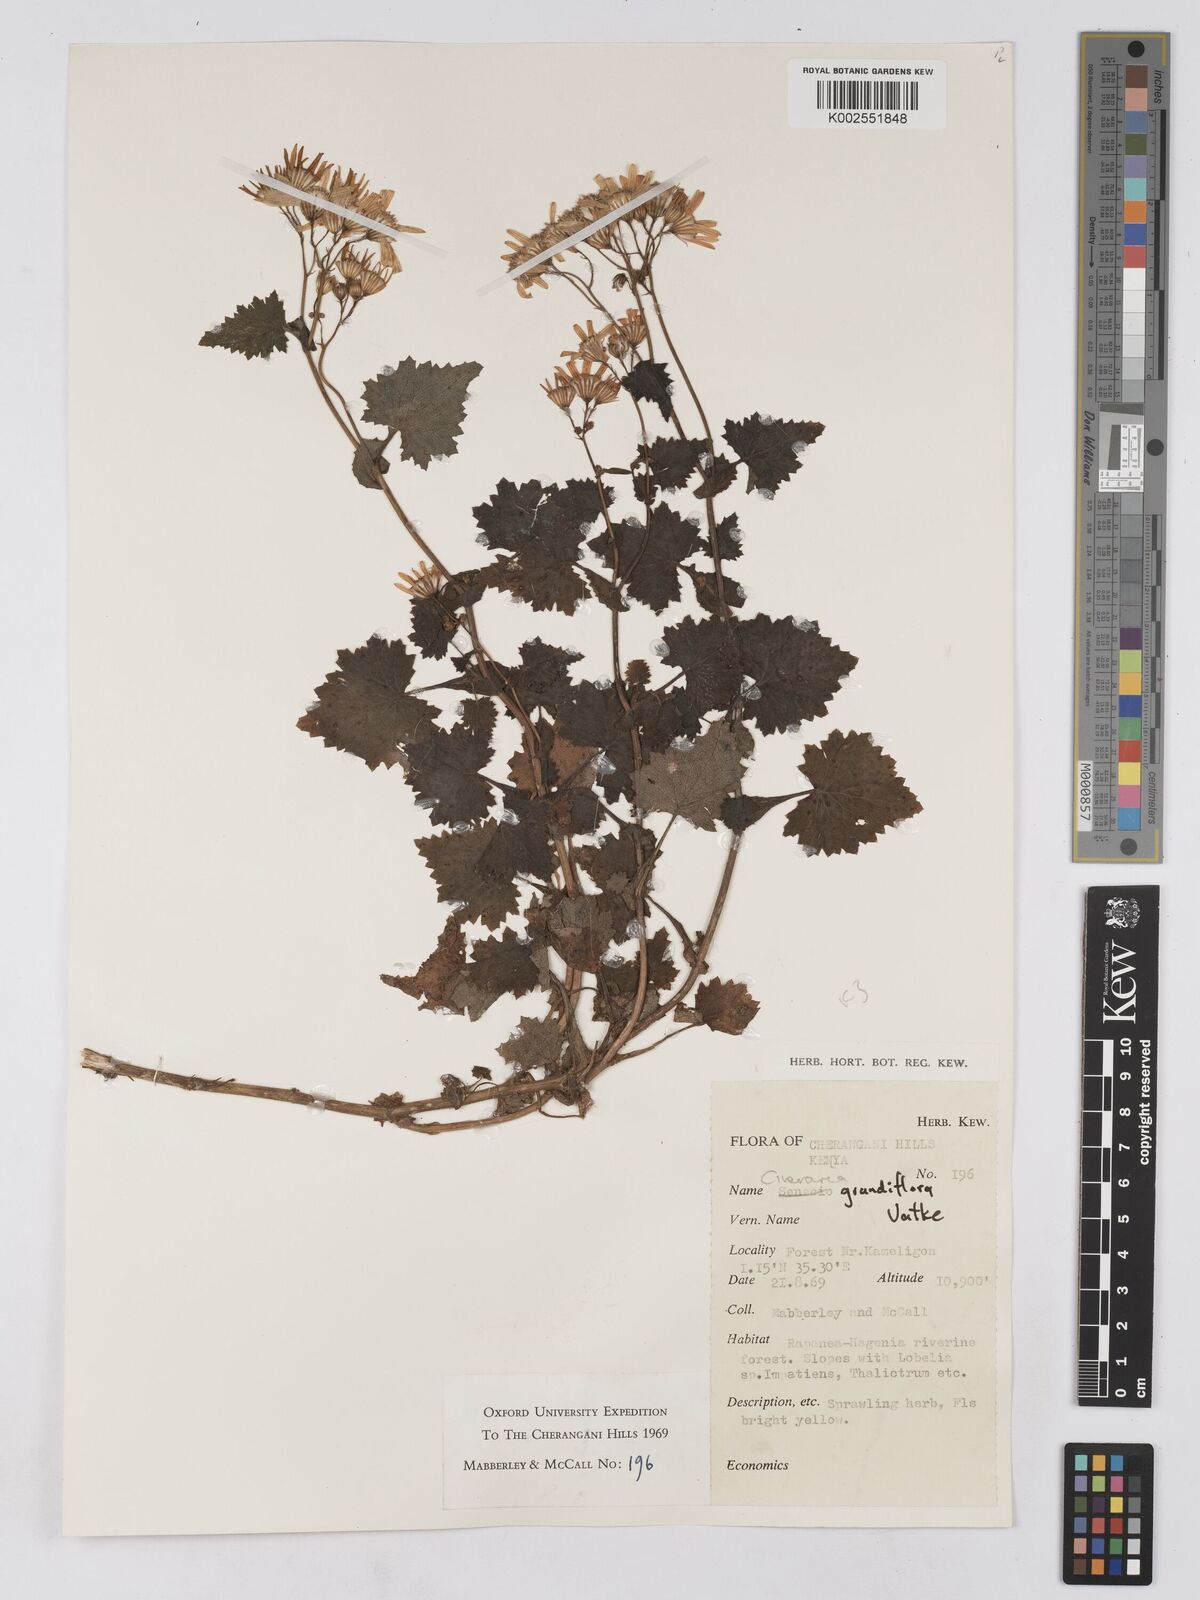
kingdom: Plantae
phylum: Tracheophyta
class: Magnoliopsida
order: Asterales
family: Asteraceae
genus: Cineraria
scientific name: Cineraria deltoidea
